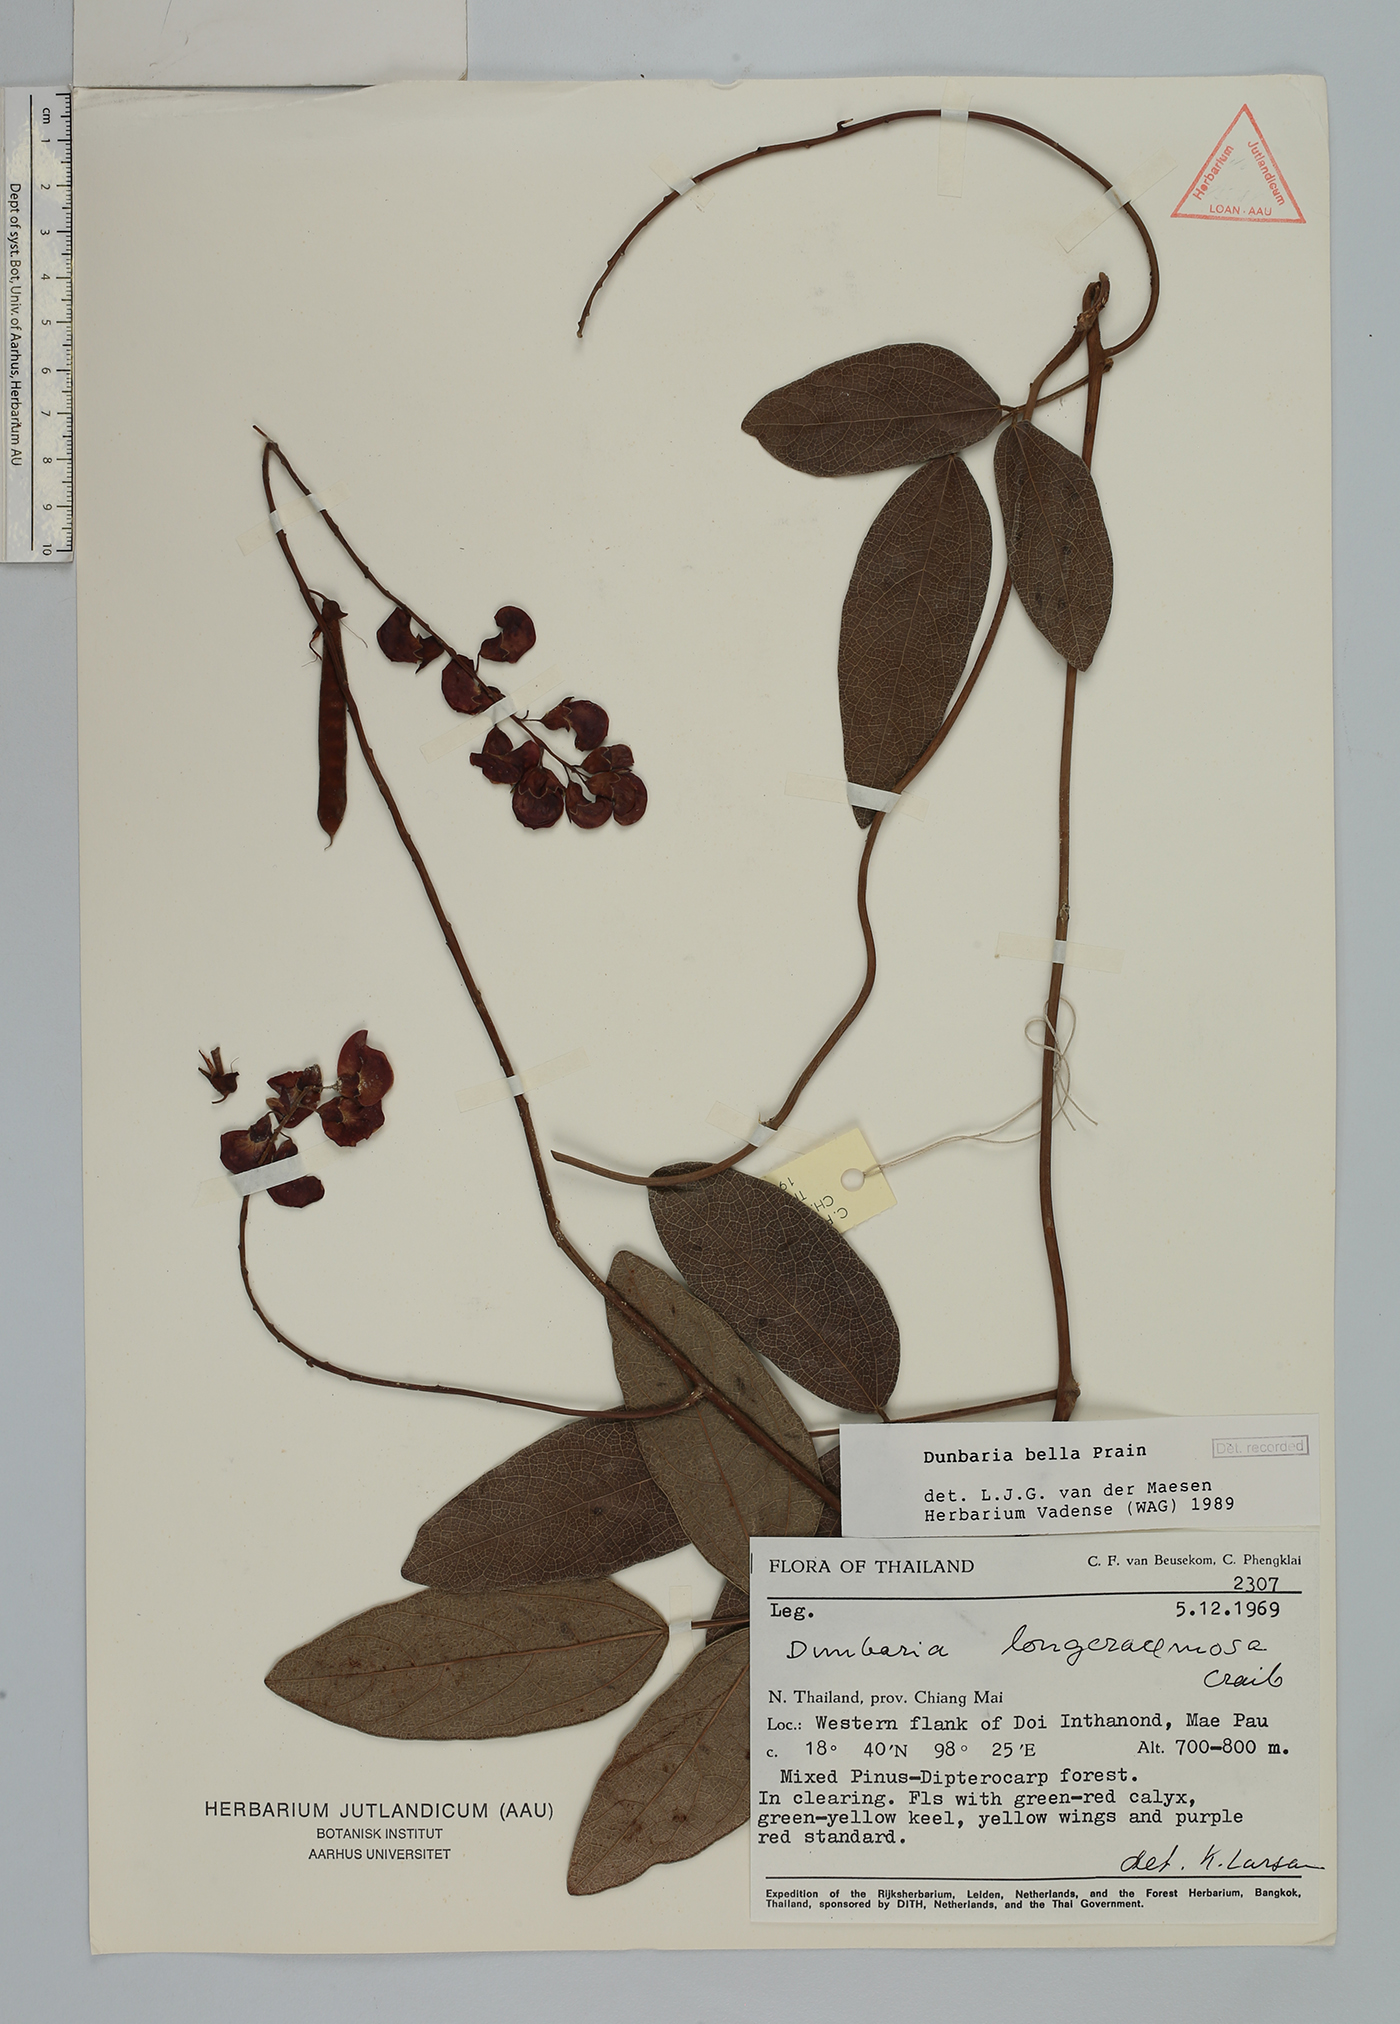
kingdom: Plantae
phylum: Tracheophyta
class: Magnoliopsida
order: Fabales
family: Fabaceae
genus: Dunbaria
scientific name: Dunbaria bella
